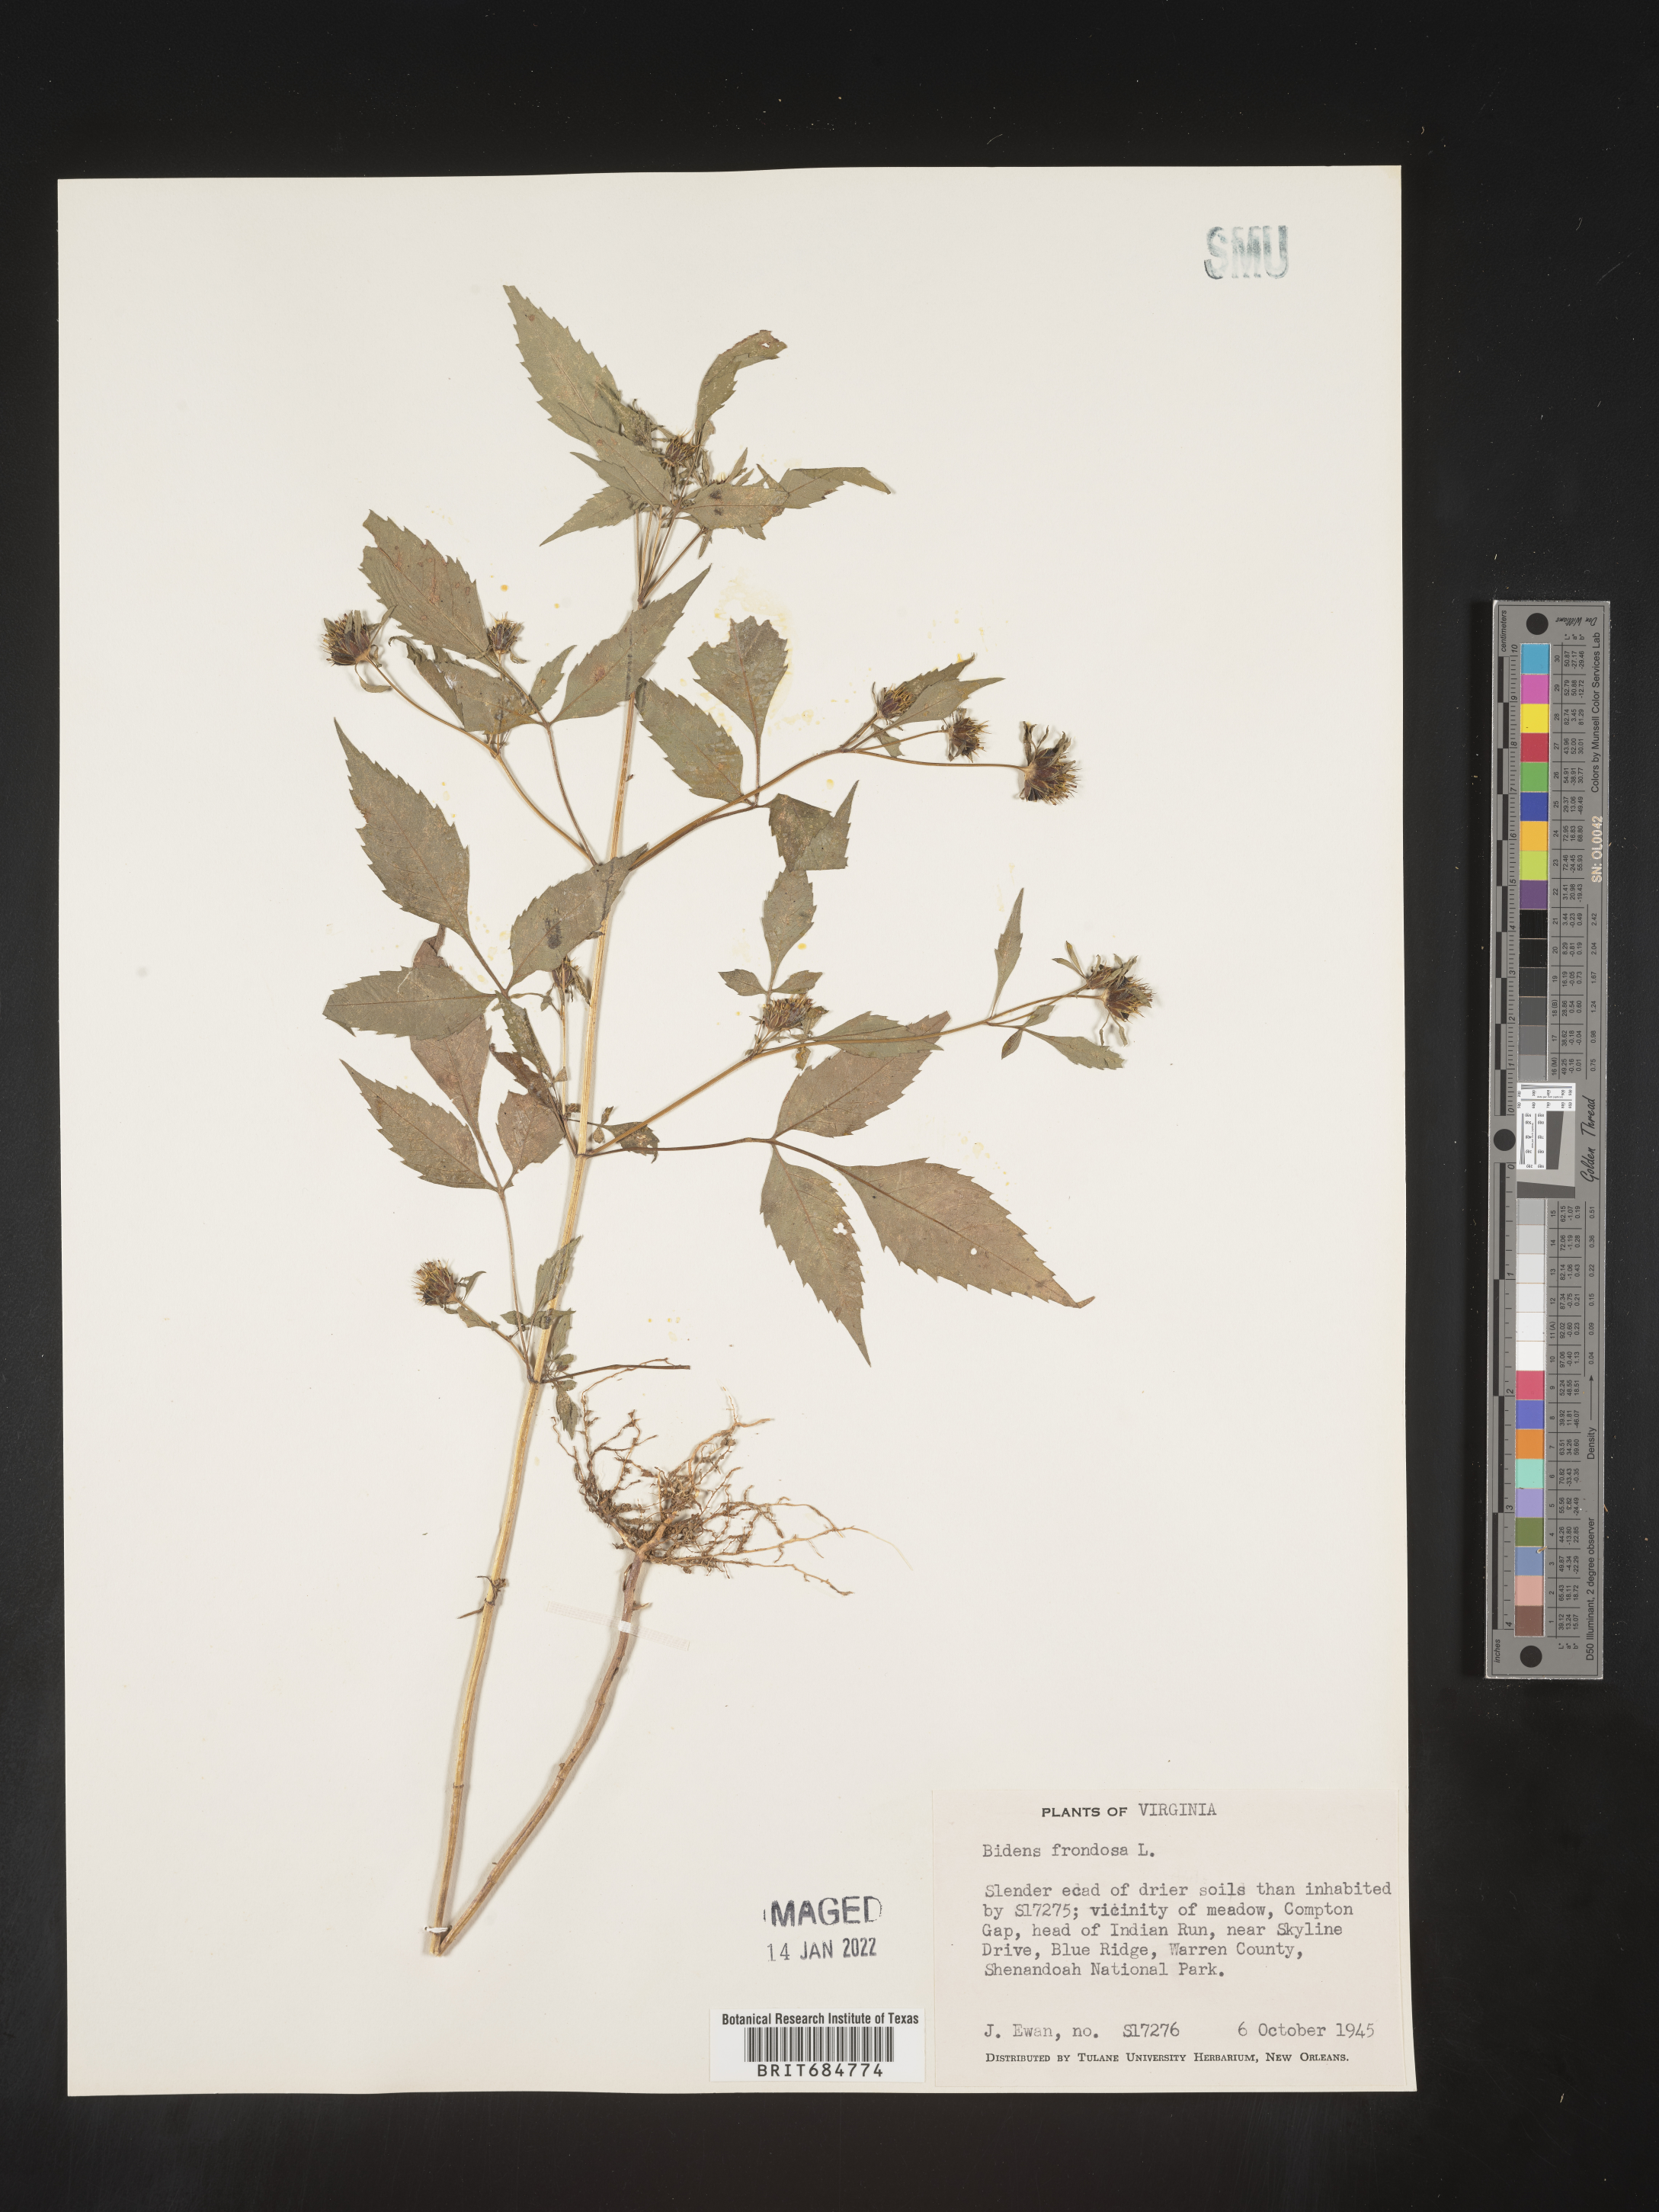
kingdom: Plantae
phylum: Tracheophyta
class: Magnoliopsida
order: Asterales
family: Asteraceae
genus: Bidens
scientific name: Bidens frondosa
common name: Beggarticks
